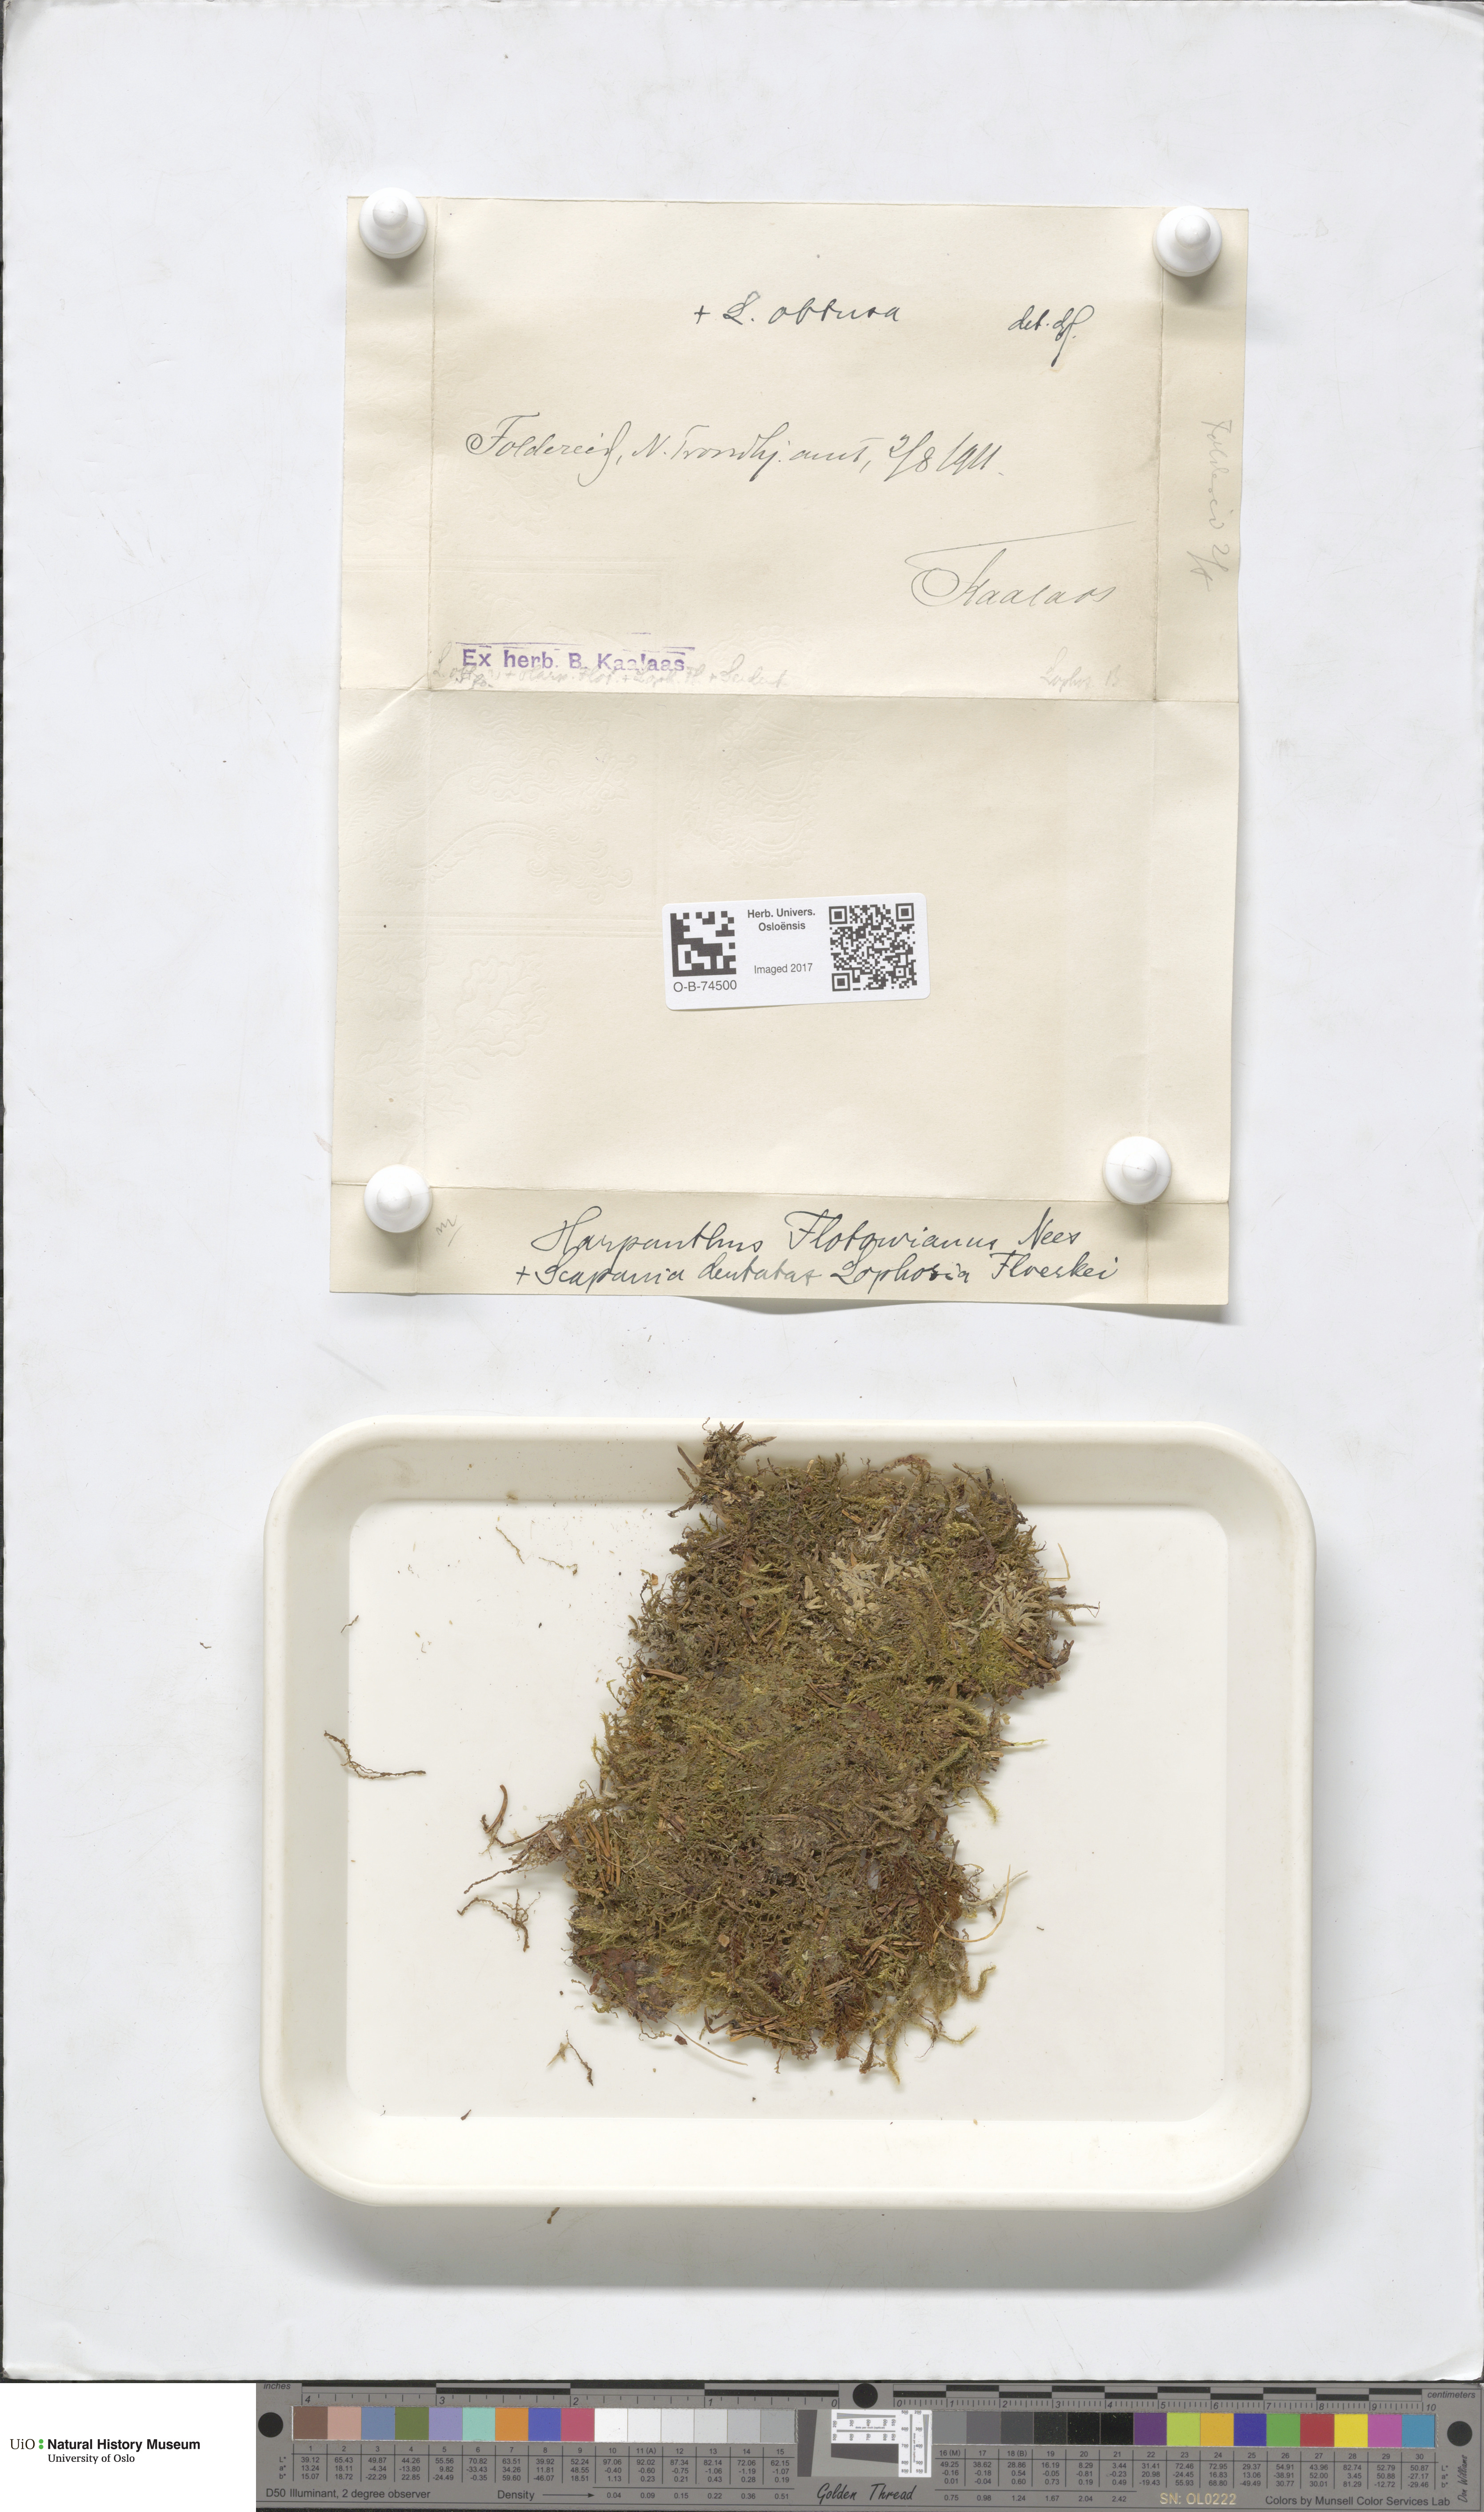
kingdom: Plantae
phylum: Marchantiophyta
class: Jungermanniopsida
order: Jungermanniales
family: Harpanthaceae
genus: Harpanthus
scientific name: Harpanthus flotovianus
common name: Great mountain flapwort
